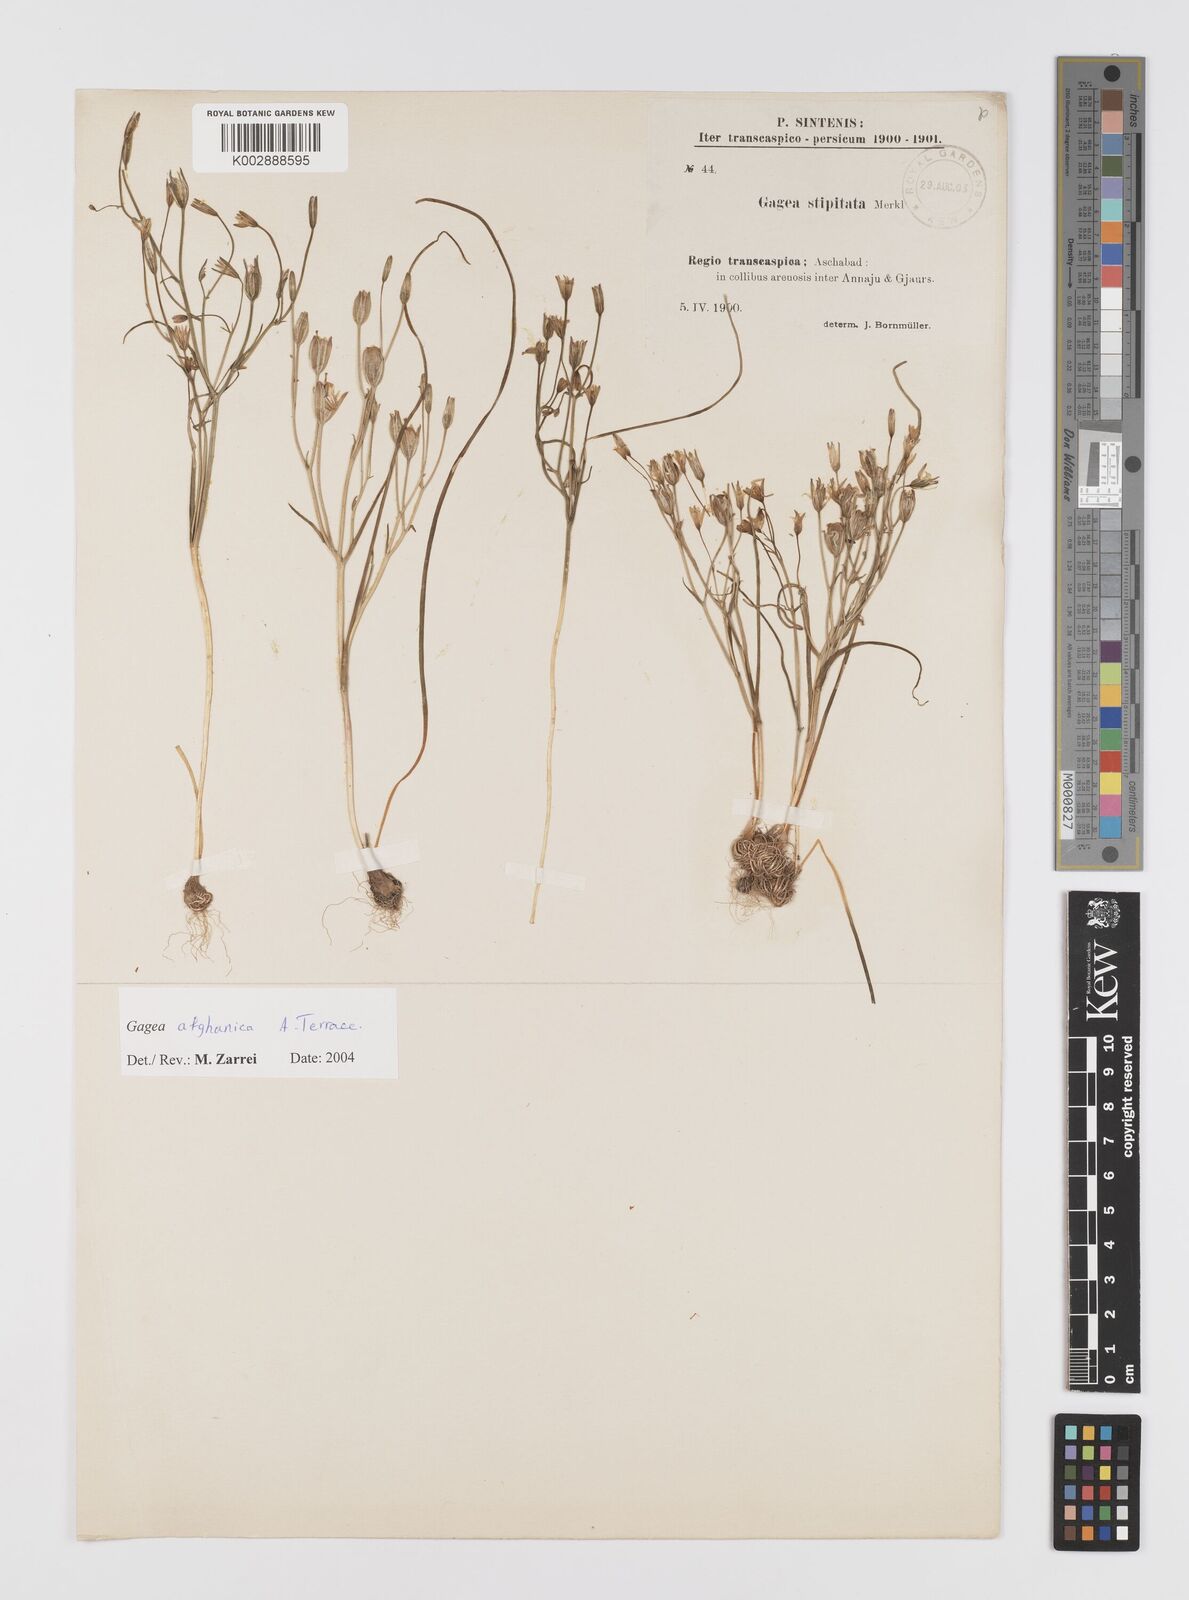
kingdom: Plantae
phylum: Tracheophyta
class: Liliopsida
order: Liliales
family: Liliaceae
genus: Gagea
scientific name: Gagea chlorantha
